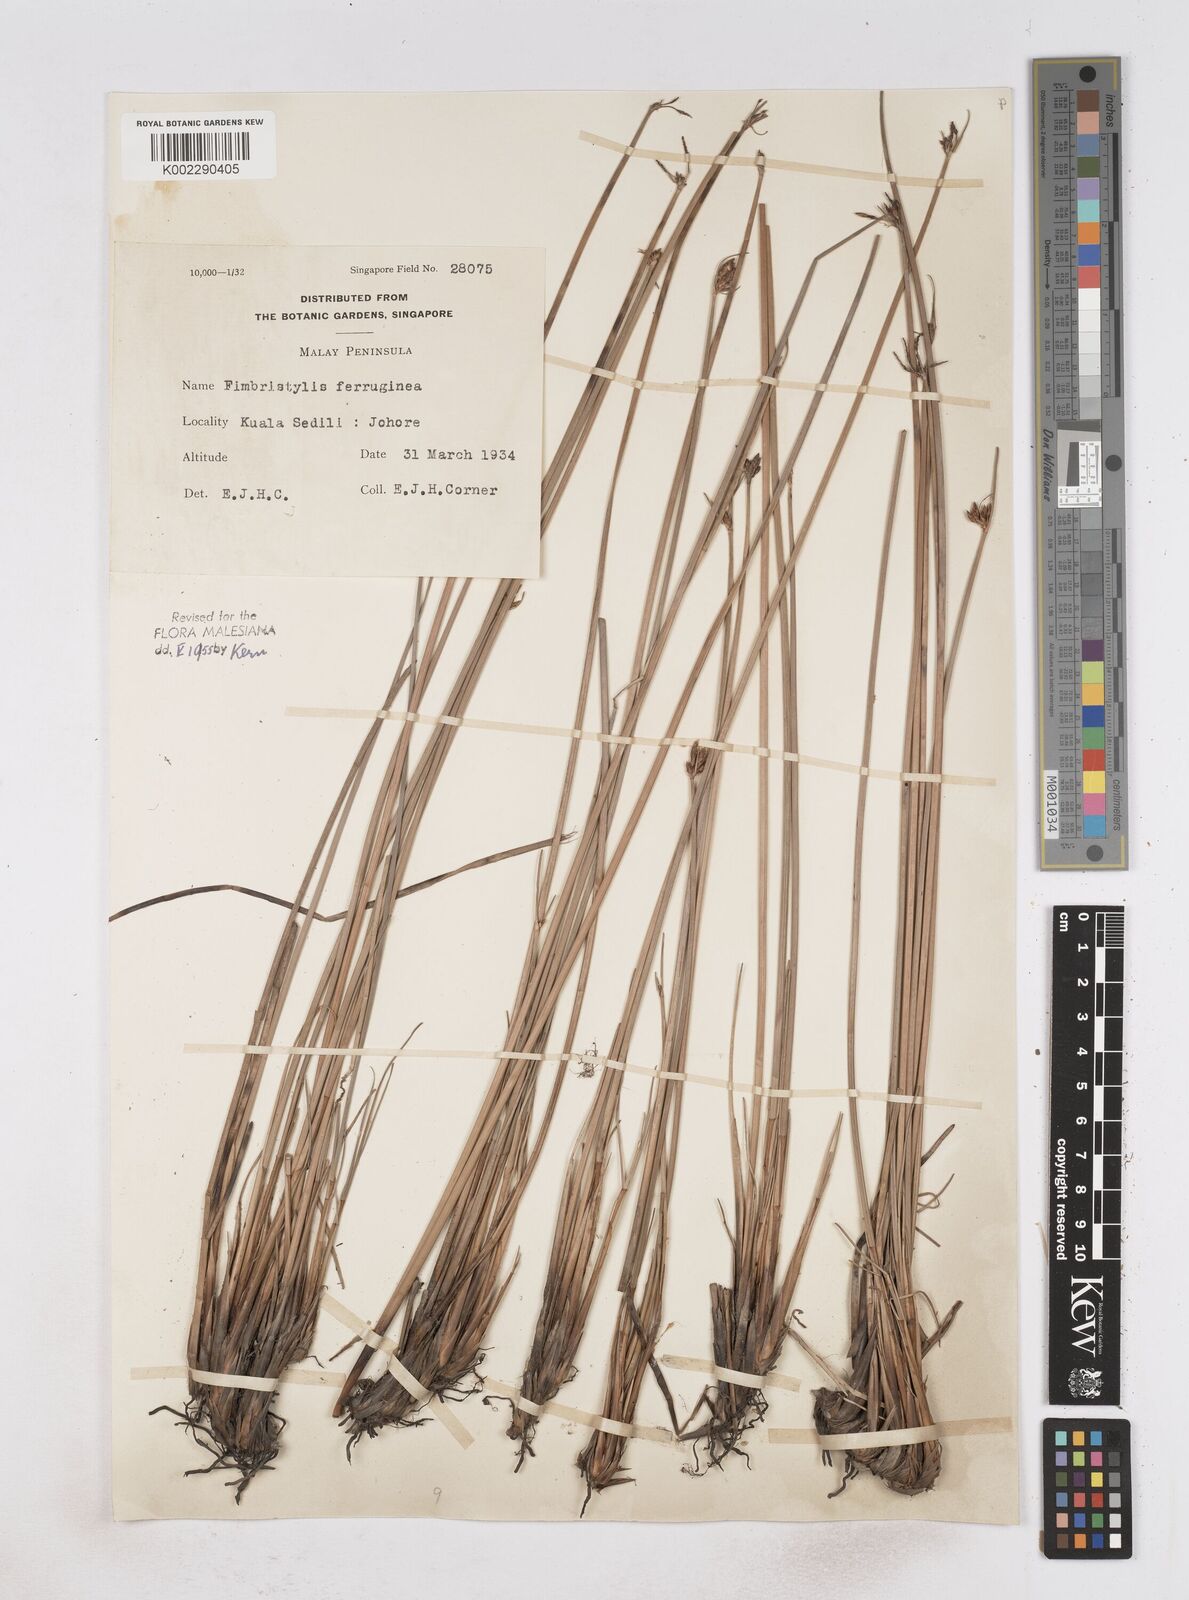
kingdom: Plantae
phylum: Tracheophyta
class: Liliopsida
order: Poales
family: Cyperaceae
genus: Fimbristylis
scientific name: Fimbristylis ferruginea
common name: West indian fimbry
